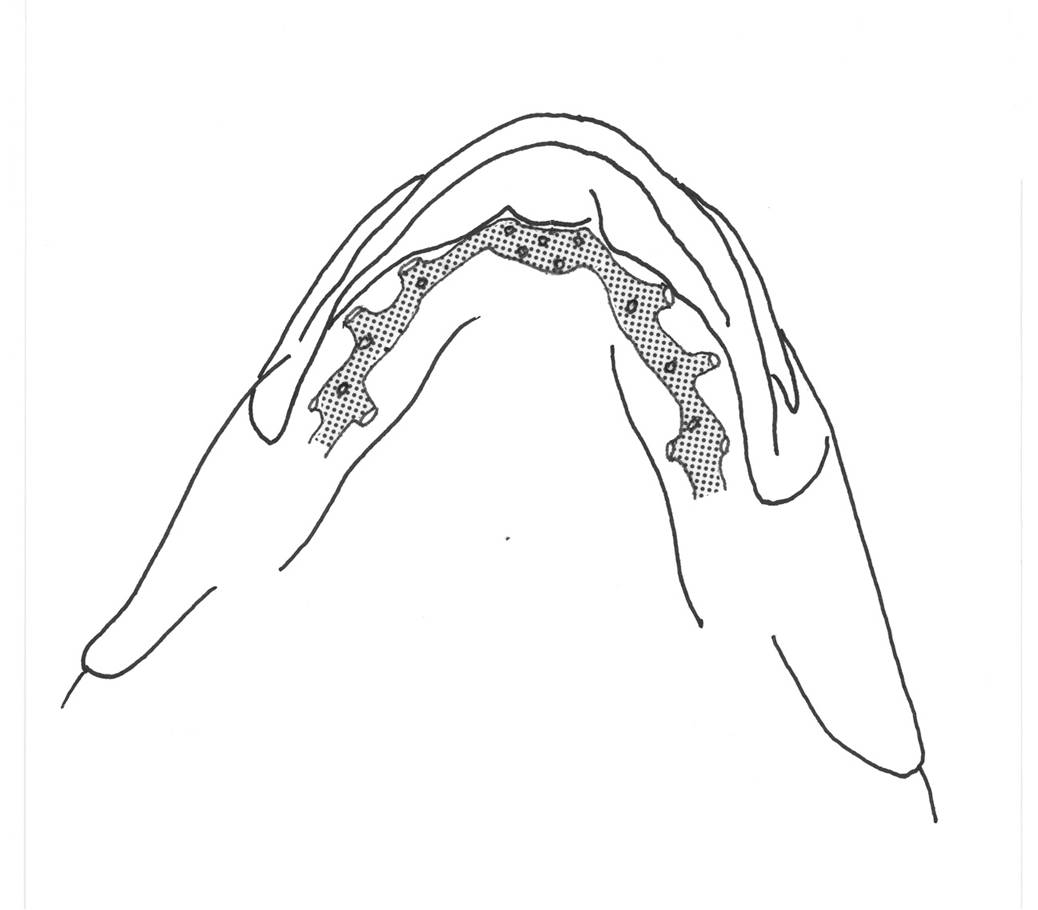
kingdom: Animalia
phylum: Chordata
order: Perciformes
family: Tripterygiidae
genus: Helcogramma
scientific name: Helcogramma ellioti
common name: Red-eye threefin
